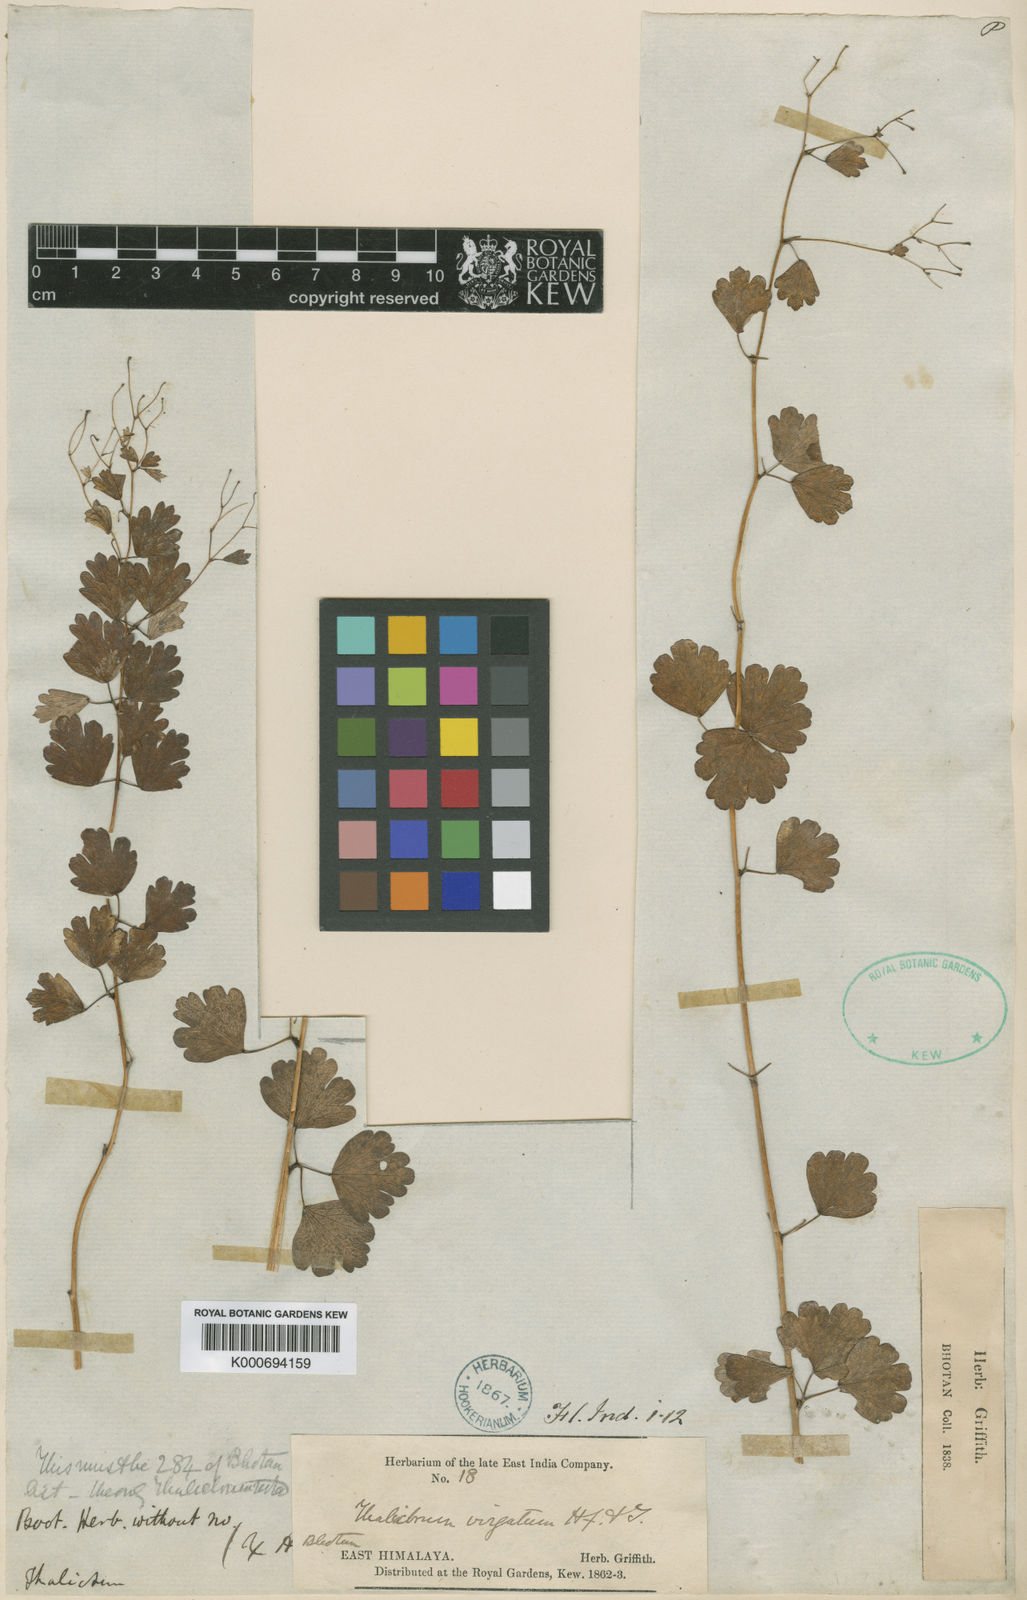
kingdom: Plantae
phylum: Tracheophyta
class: Magnoliopsida
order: Ranunculales
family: Ranunculaceae
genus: Thalictrum
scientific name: Thalictrum virgatum
